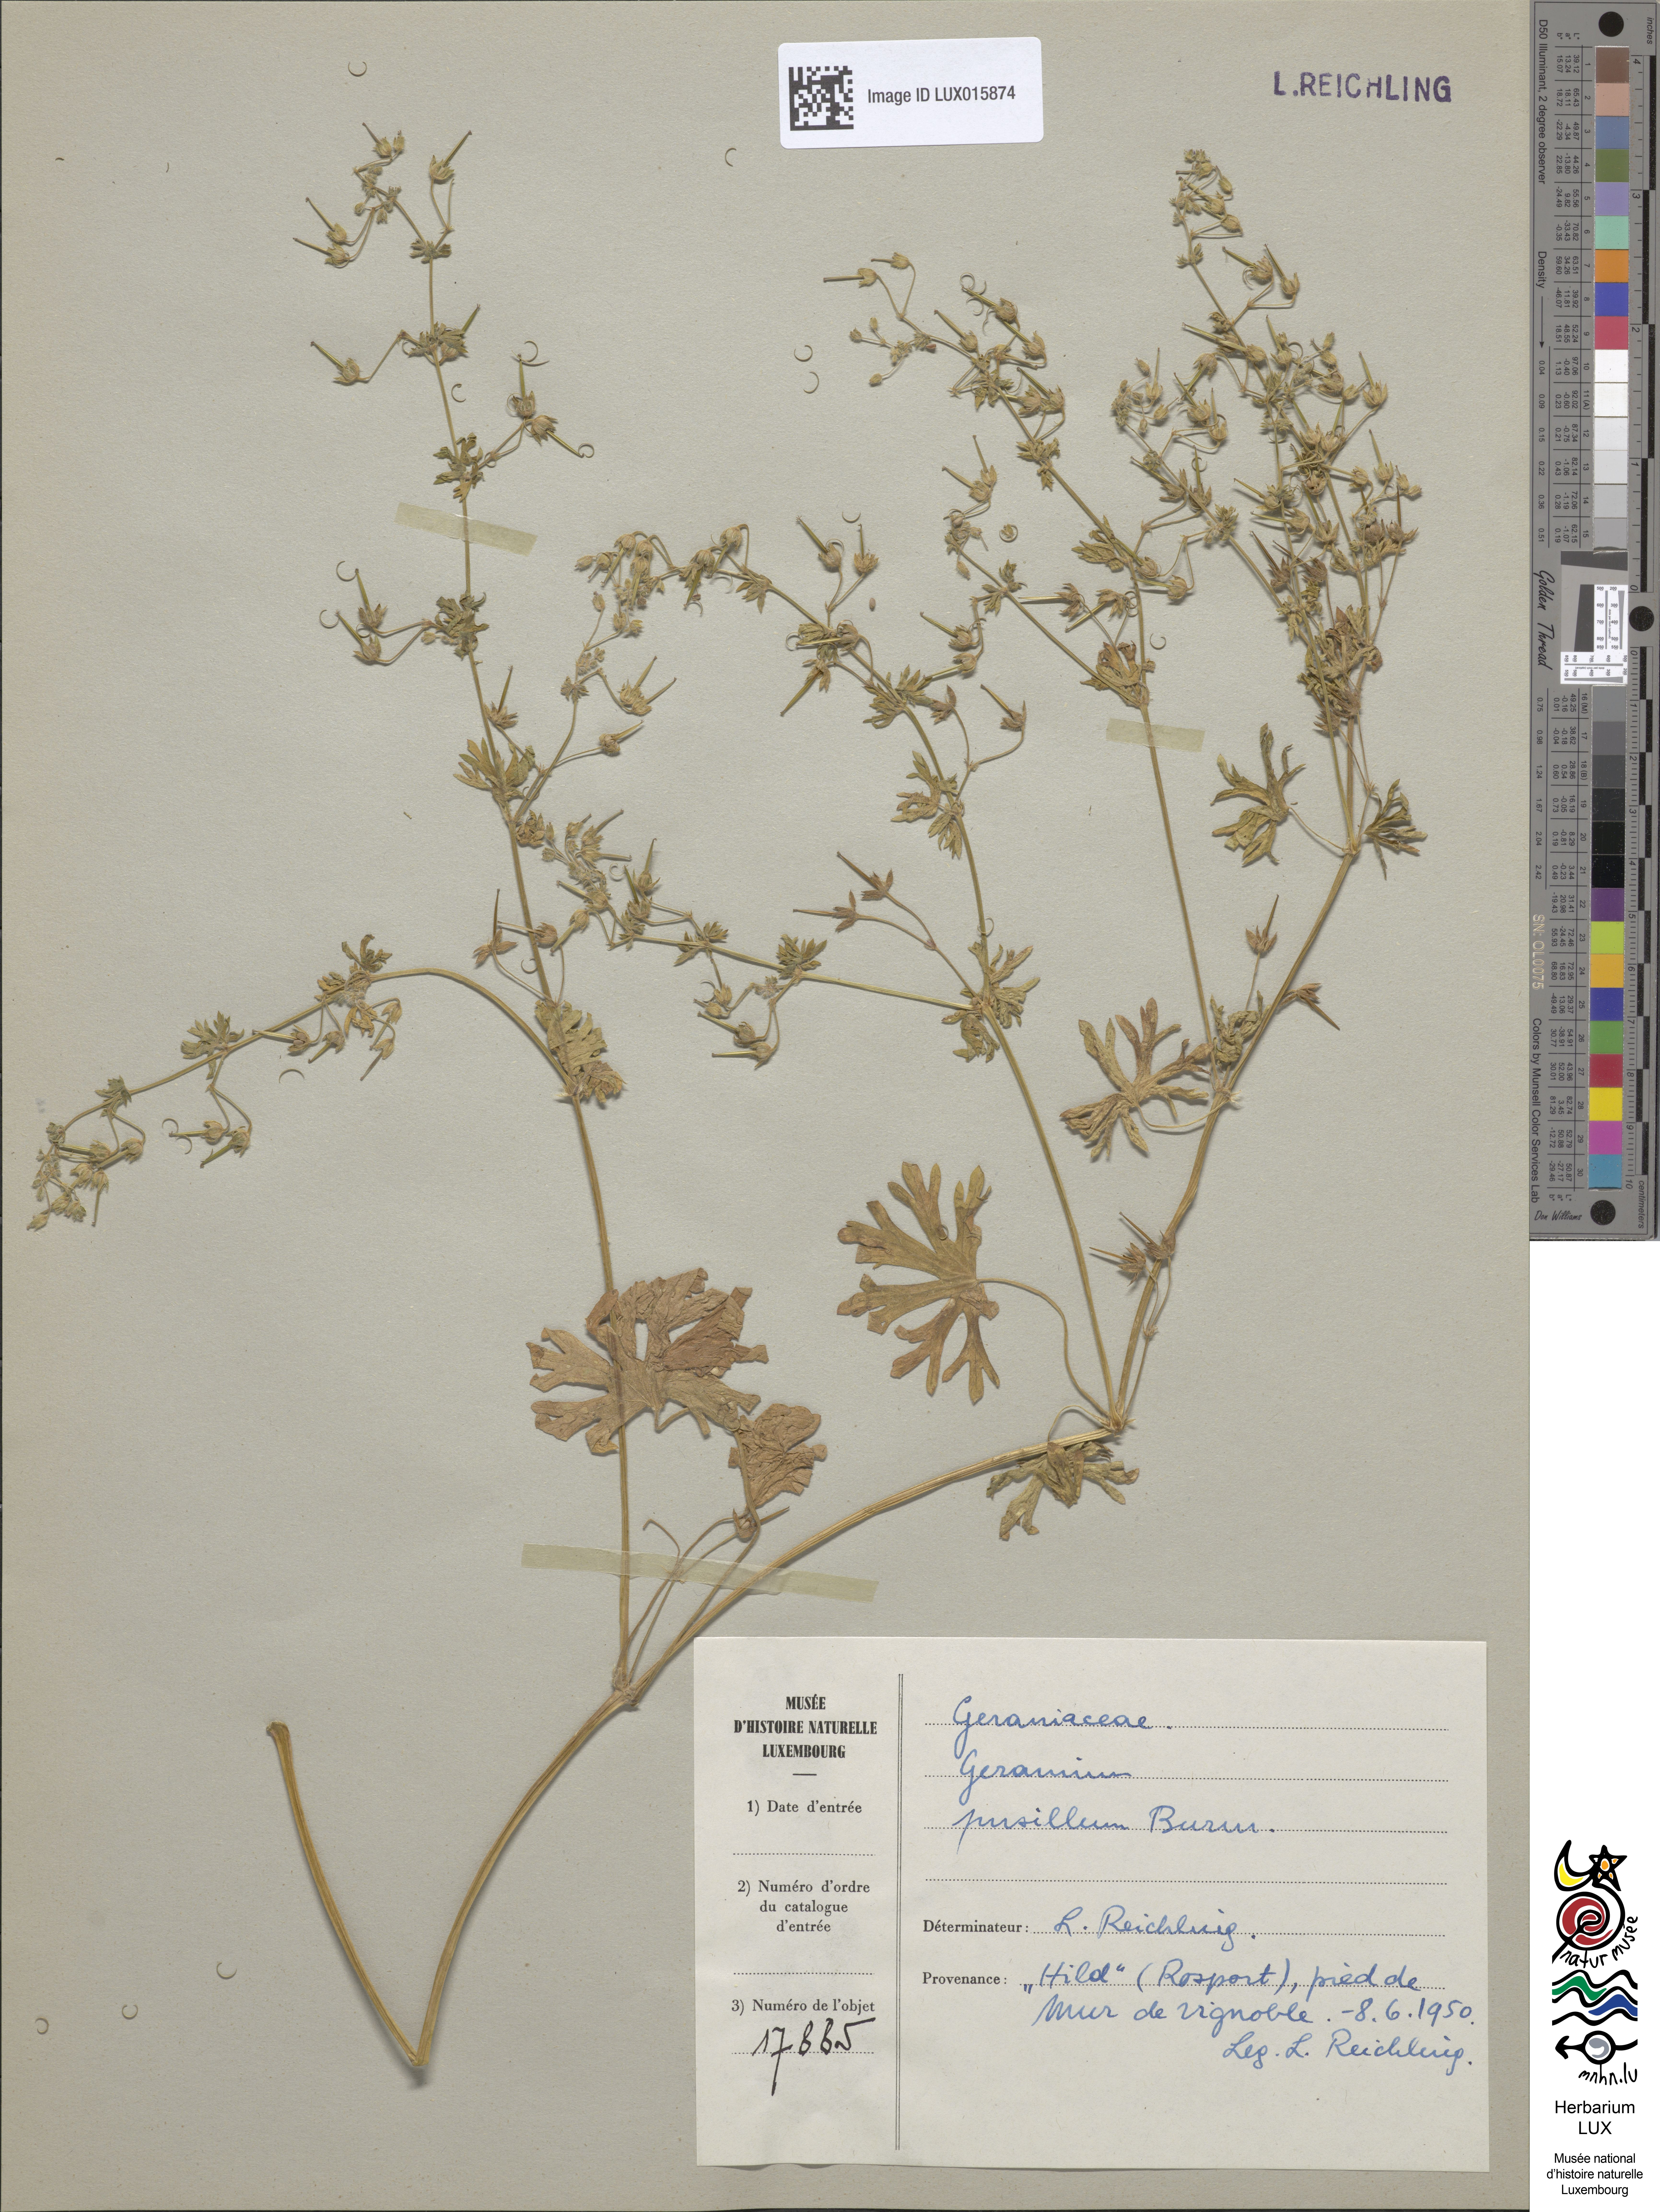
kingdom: Plantae
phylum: Tracheophyta
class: Magnoliopsida
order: Geraniales
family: Geraniaceae
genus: Geranium
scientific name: Geranium pusillum
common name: Small geranium
